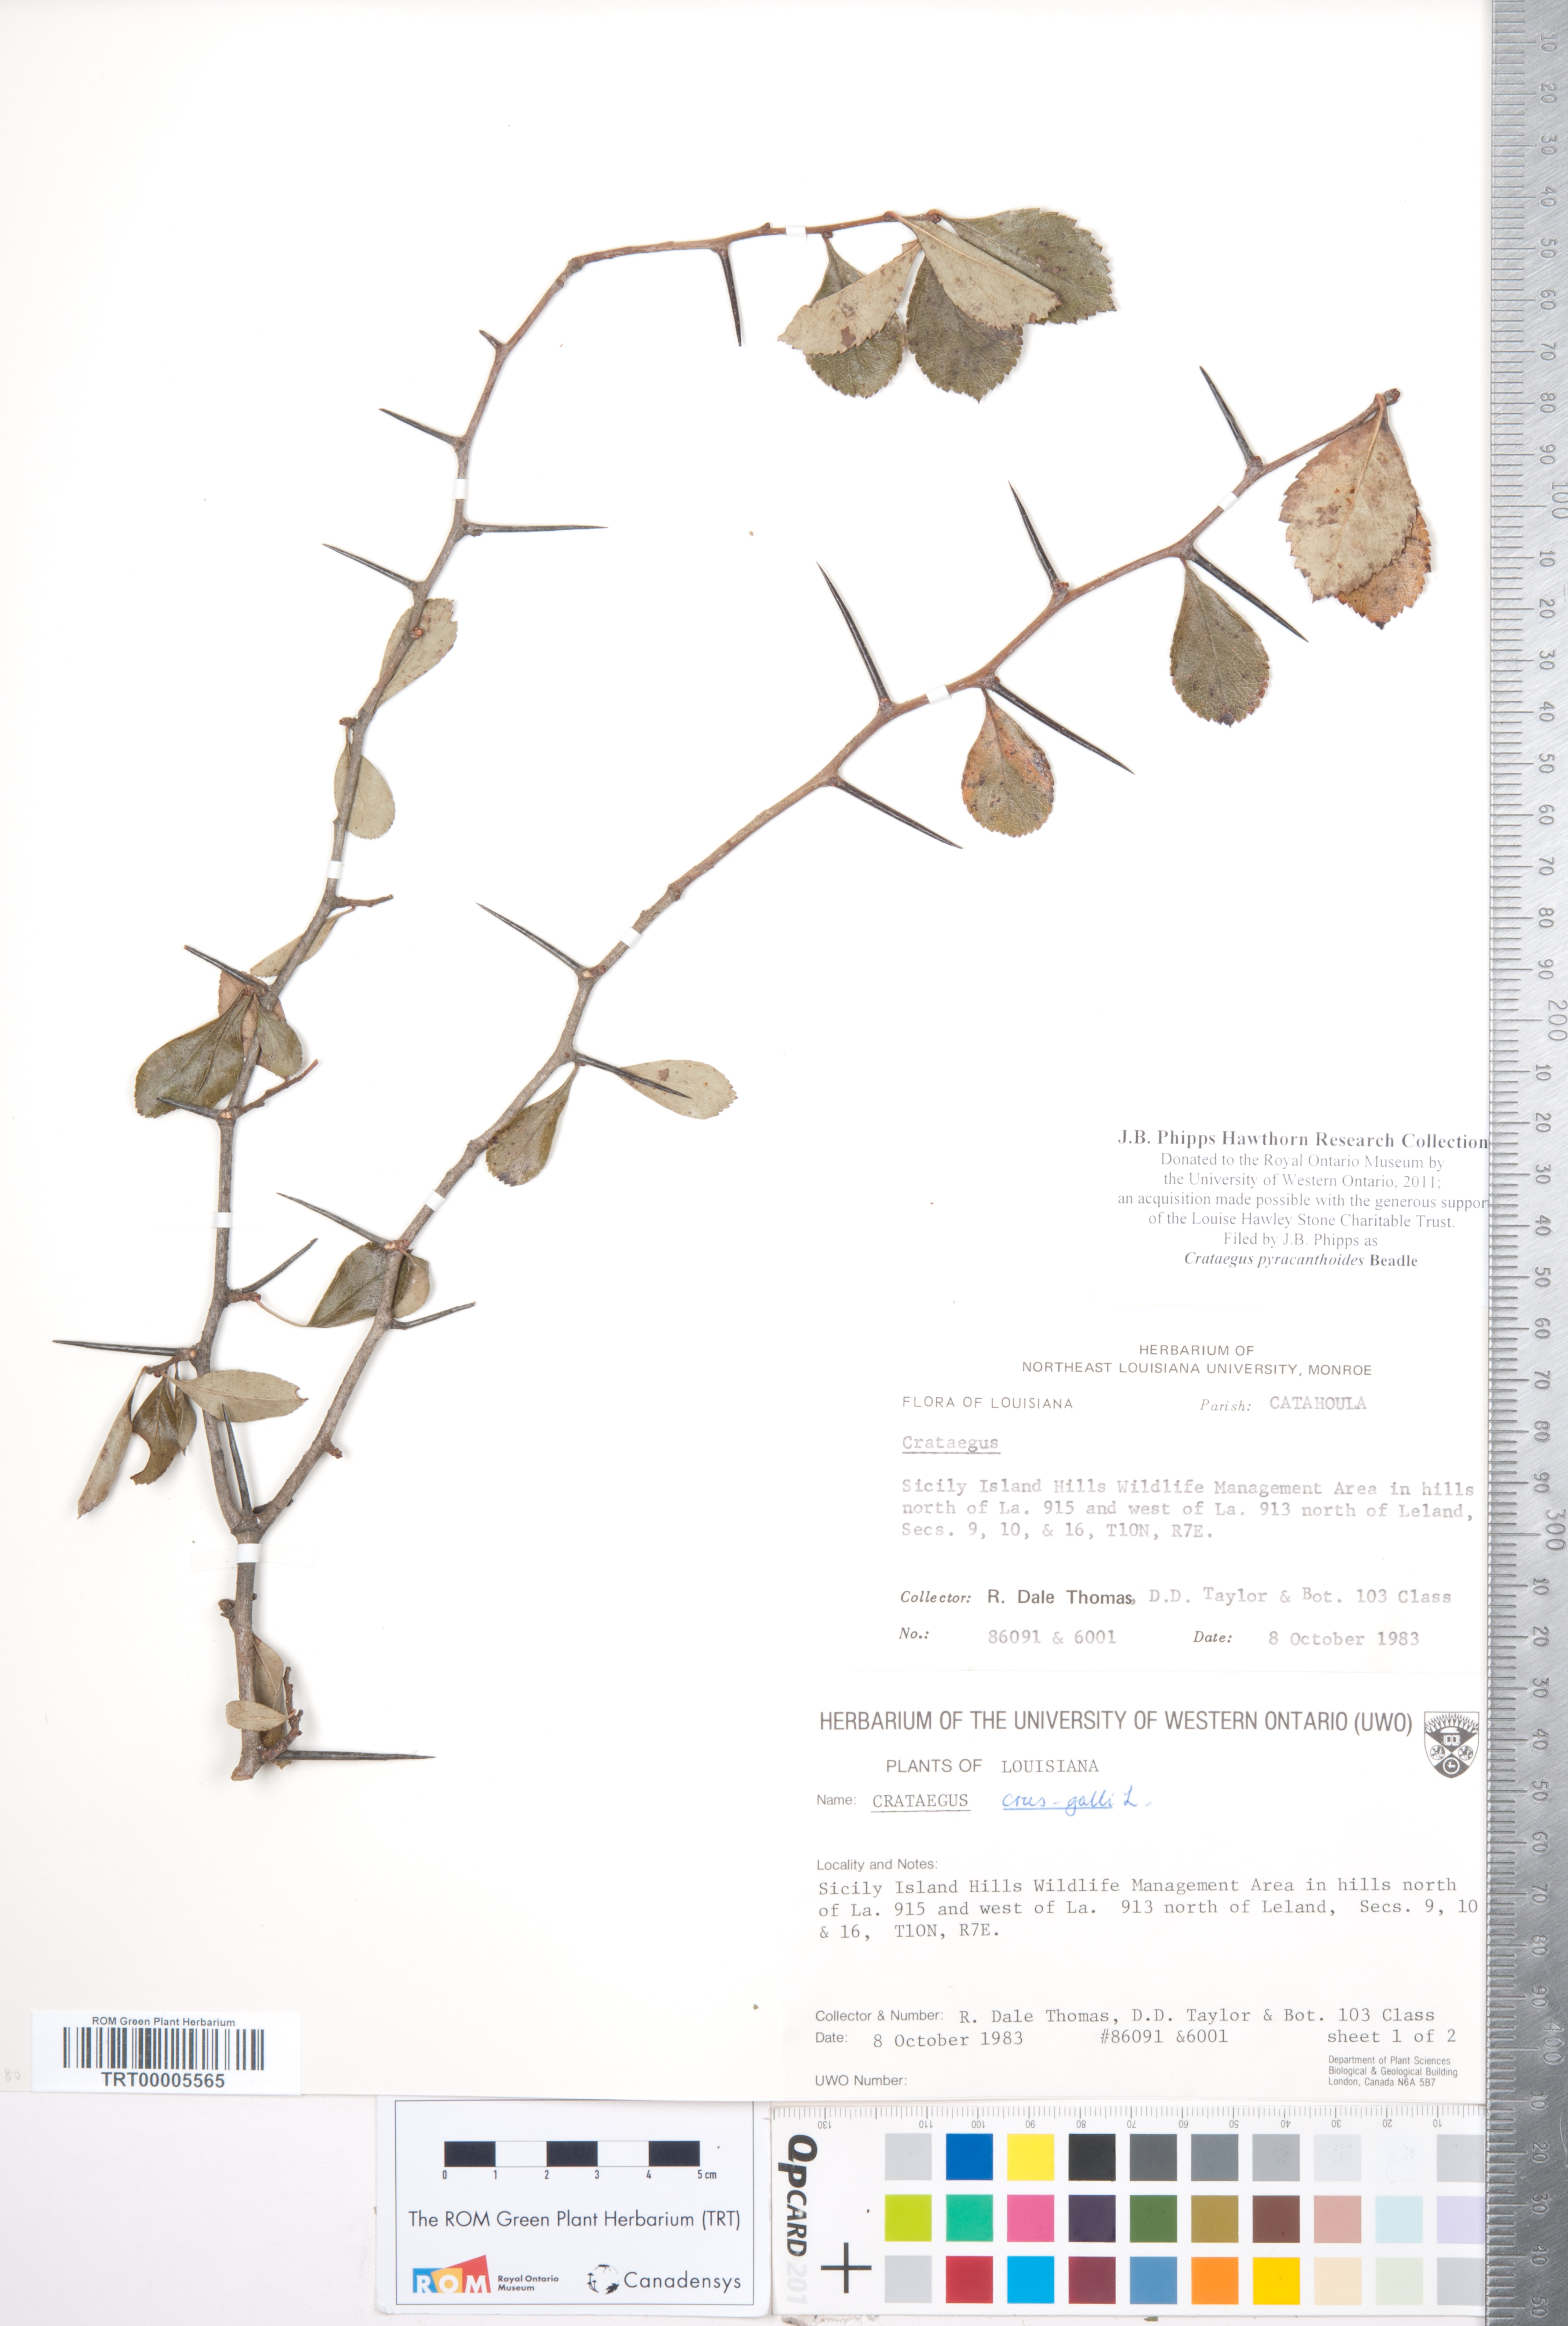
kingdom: Plantae
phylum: Tracheophyta
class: Magnoliopsida
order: Rosales
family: Rosaceae
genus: Crataegus
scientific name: Crataegus crus-galli
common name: Cockspurthorn
